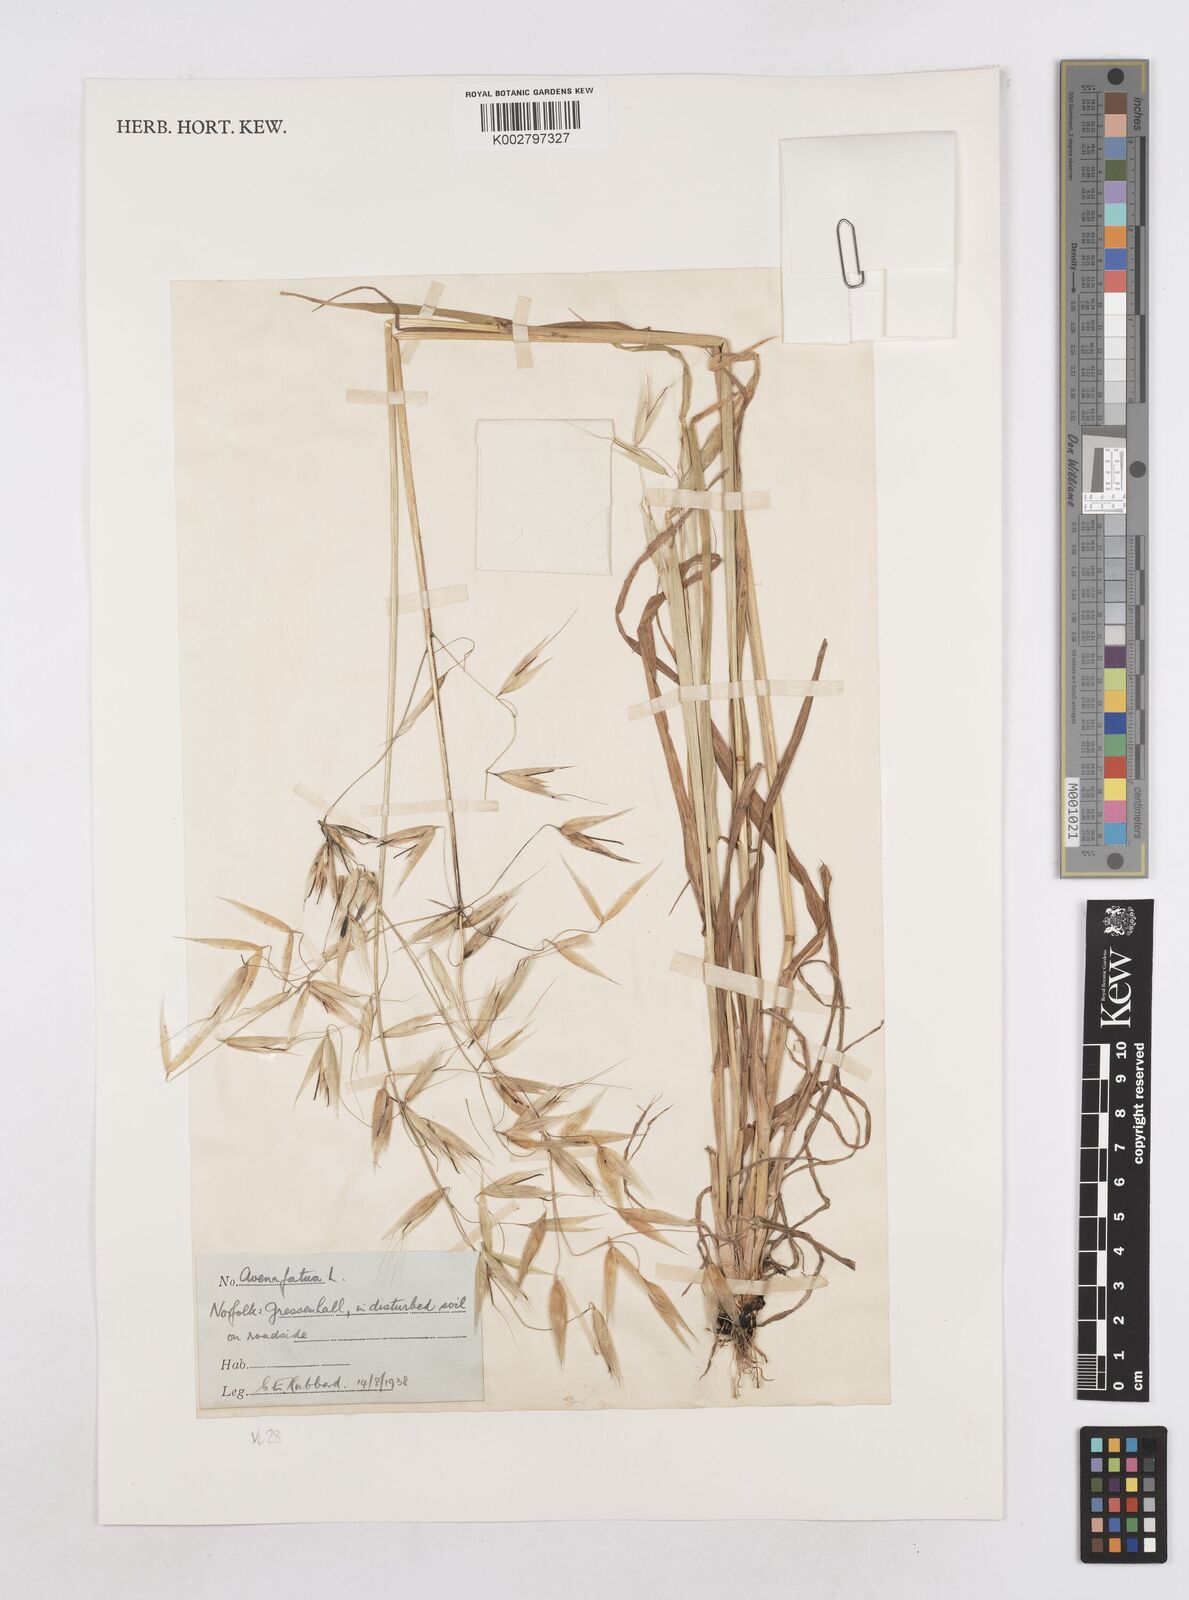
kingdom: Plantae
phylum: Tracheophyta
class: Liliopsida
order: Poales
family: Poaceae
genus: Avena
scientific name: Avena fatua
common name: Wild oat
